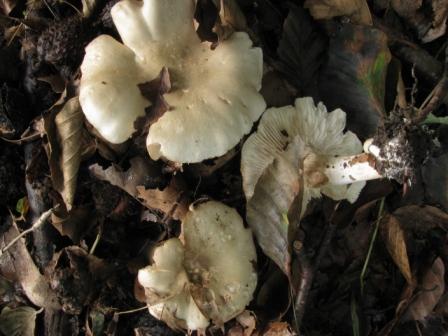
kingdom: Fungi
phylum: Basidiomycota
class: Agaricomycetes
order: Agaricales
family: Tricholomataceae
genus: Tricholoma
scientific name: Tricholoma lascivum
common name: stinkende ridderhat
